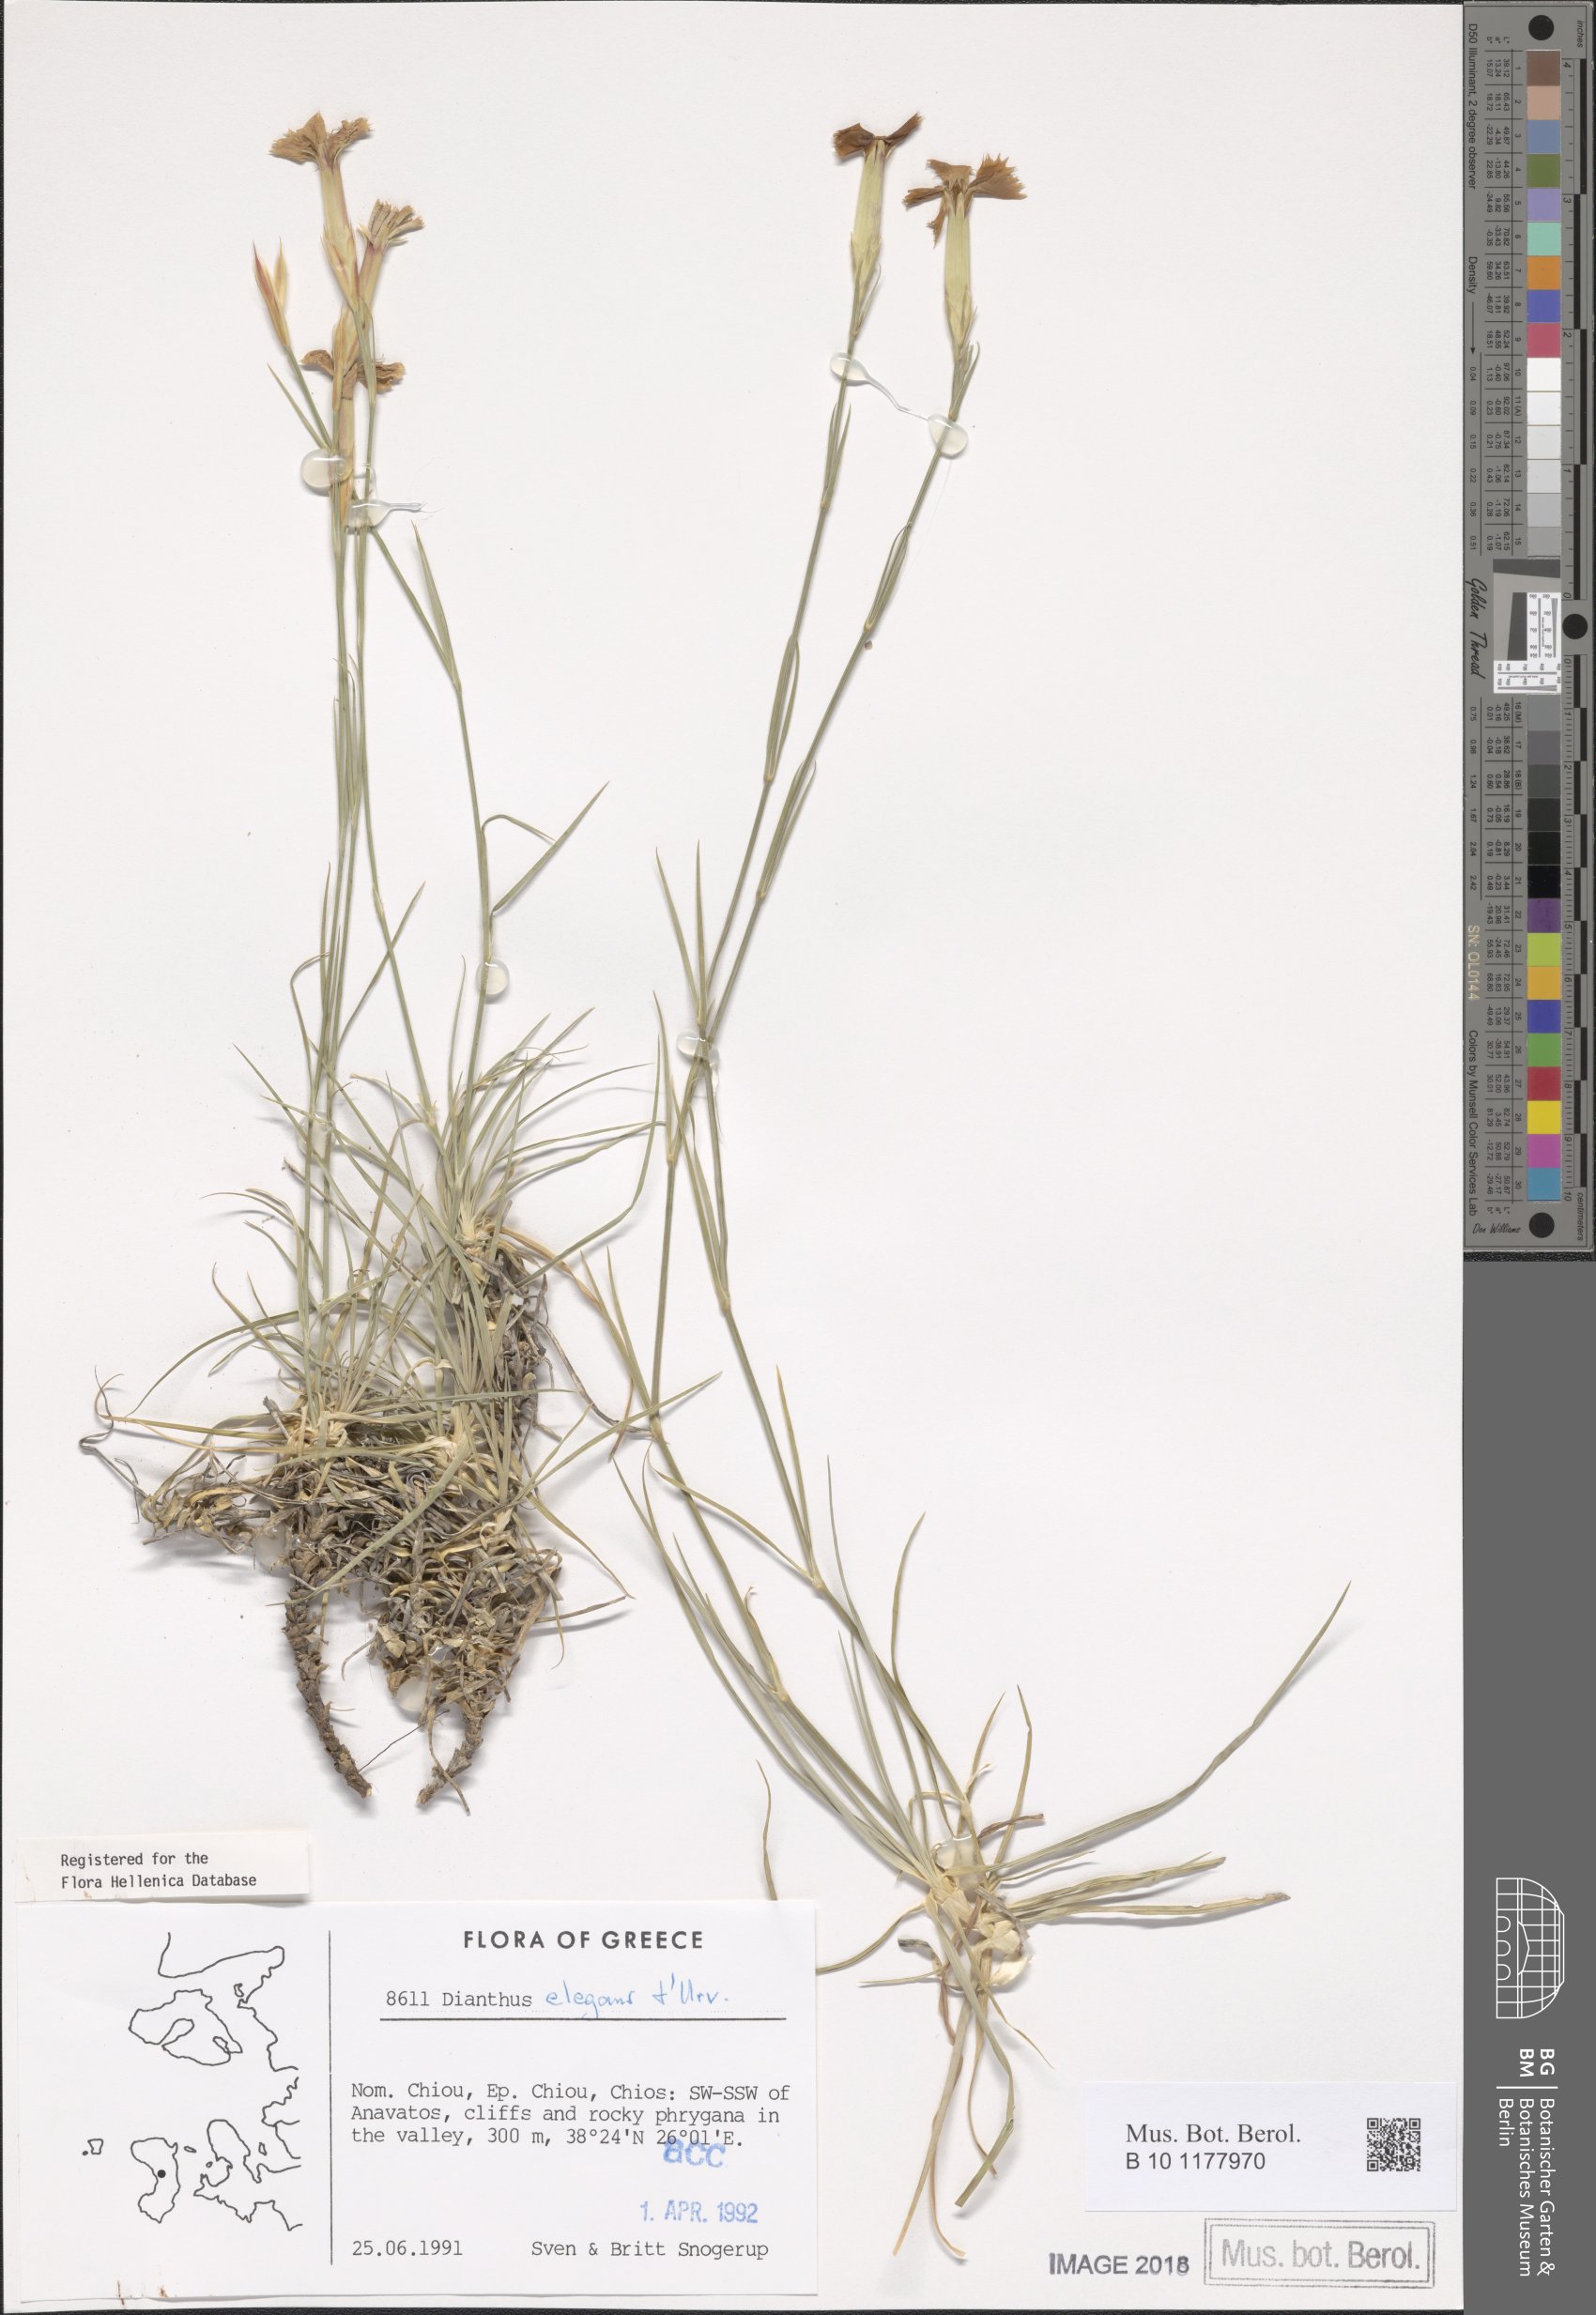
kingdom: Plantae
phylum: Tracheophyta
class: Magnoliopsida
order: Caryophyllales
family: Caryophyllaceae
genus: Dianthus
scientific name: Dianthus elegans
